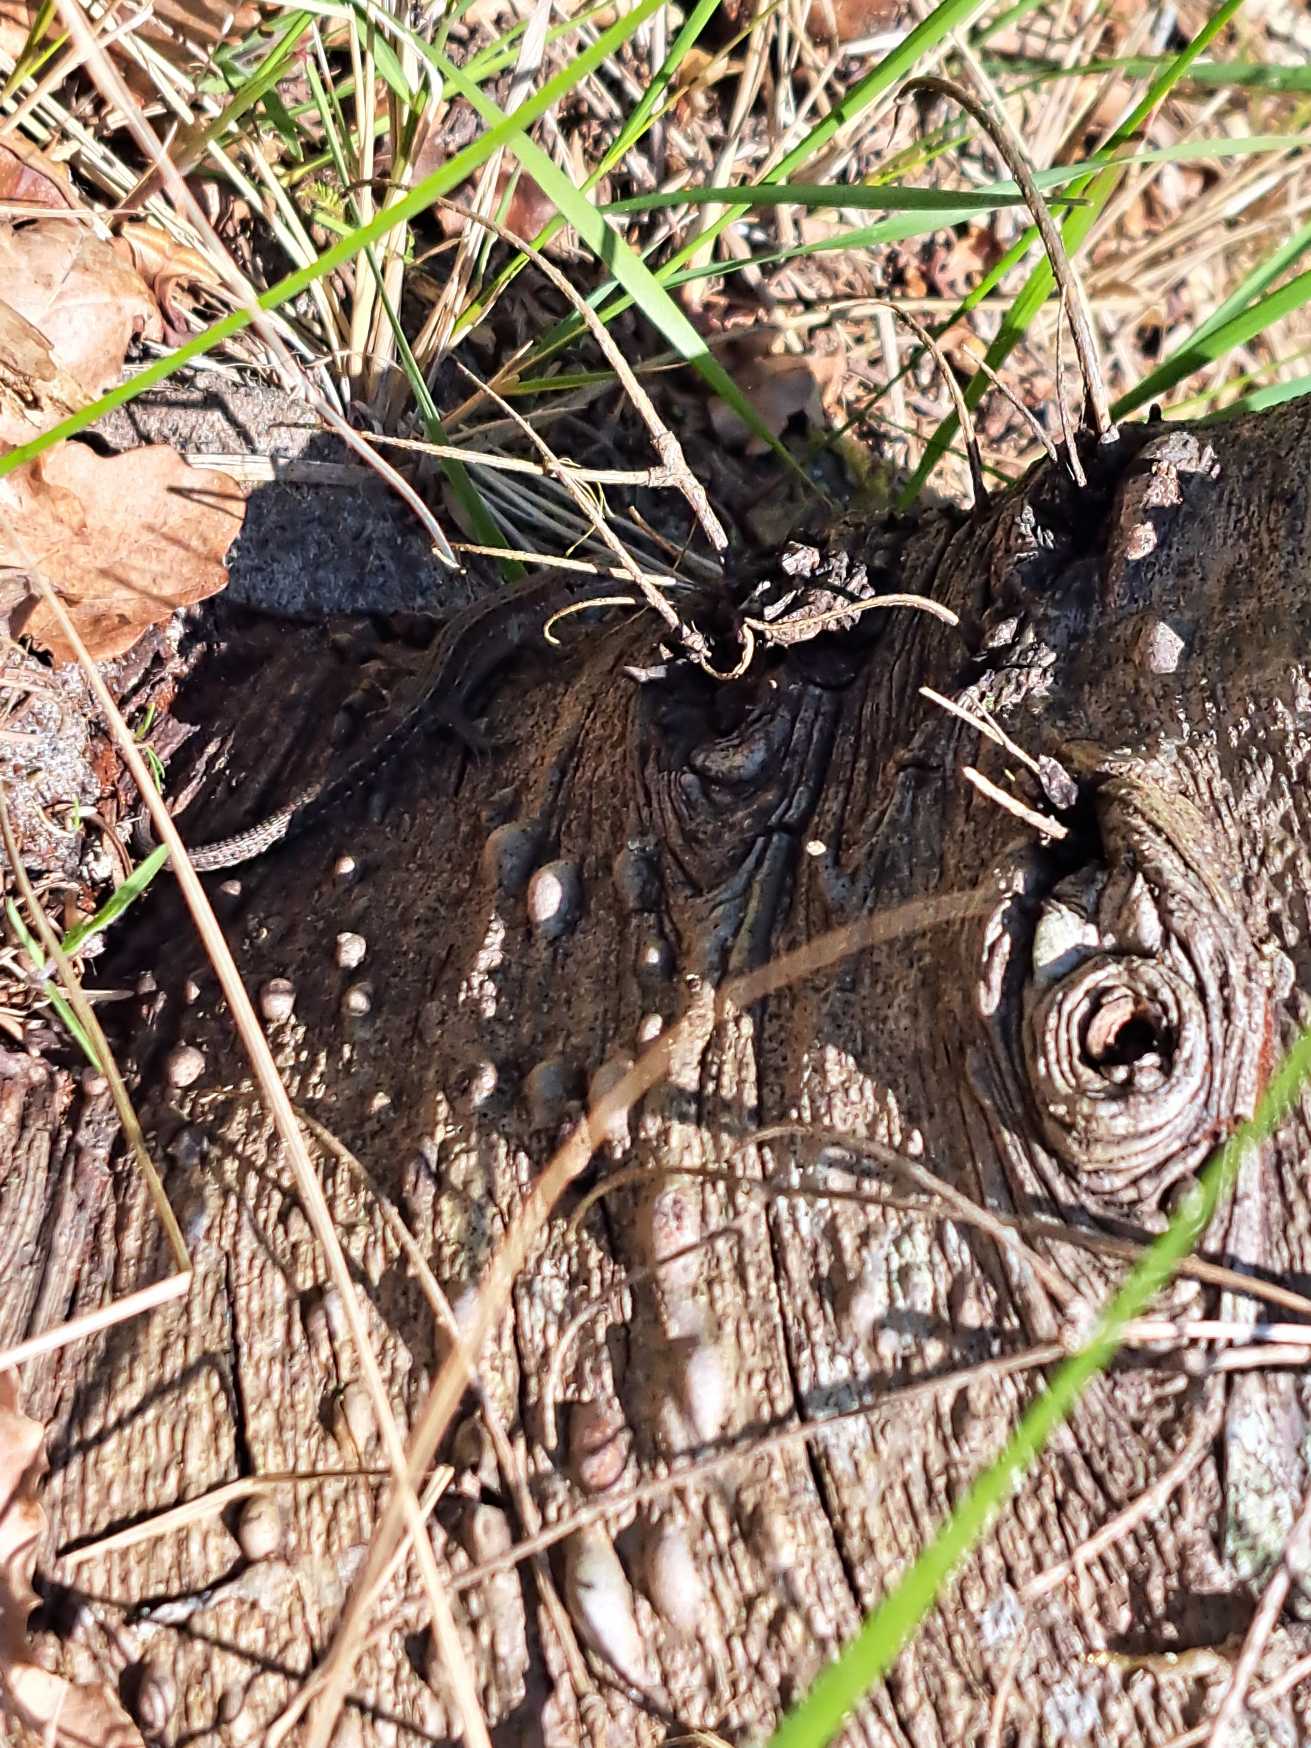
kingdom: Animalia
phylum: Chordata
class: Squamata
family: Lacertidae
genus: Zootoca
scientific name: Zootoca vivipara
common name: Skovfirben
